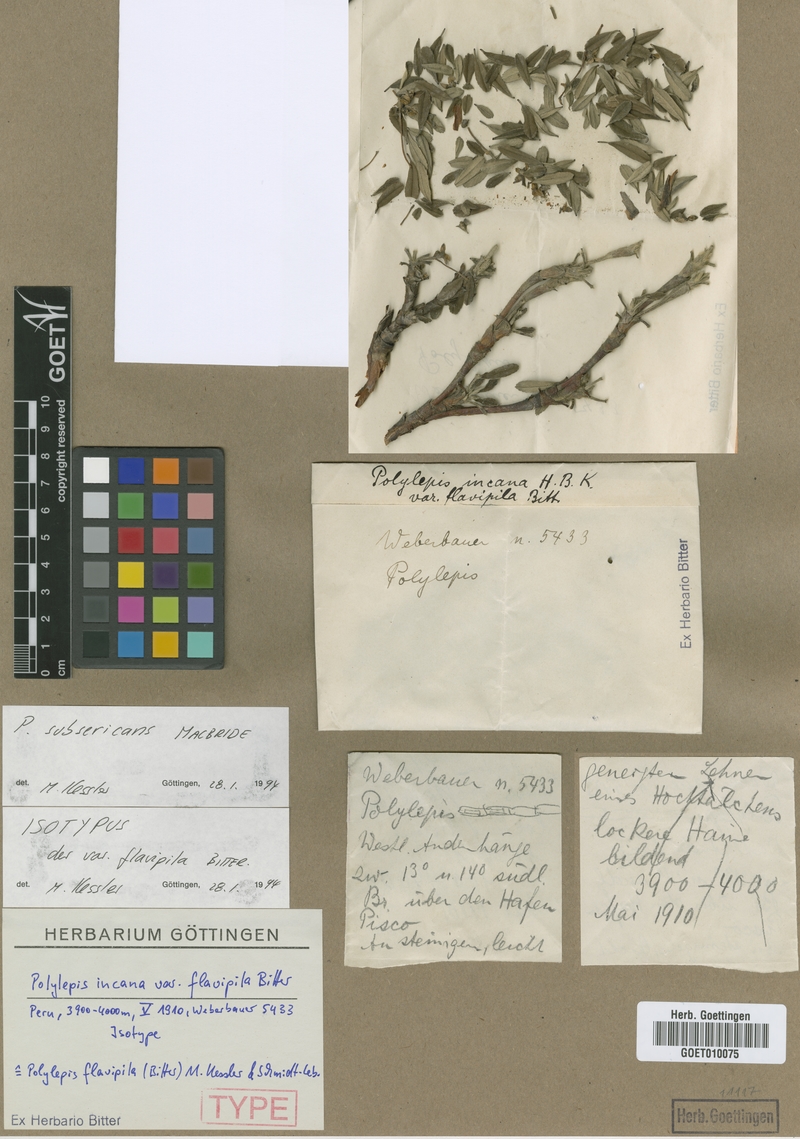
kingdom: Plantae
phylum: Tracheophyta
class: Magnoliopsida
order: Rosales
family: Rosaceae
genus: Polylepis
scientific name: Polylepis flavipila
